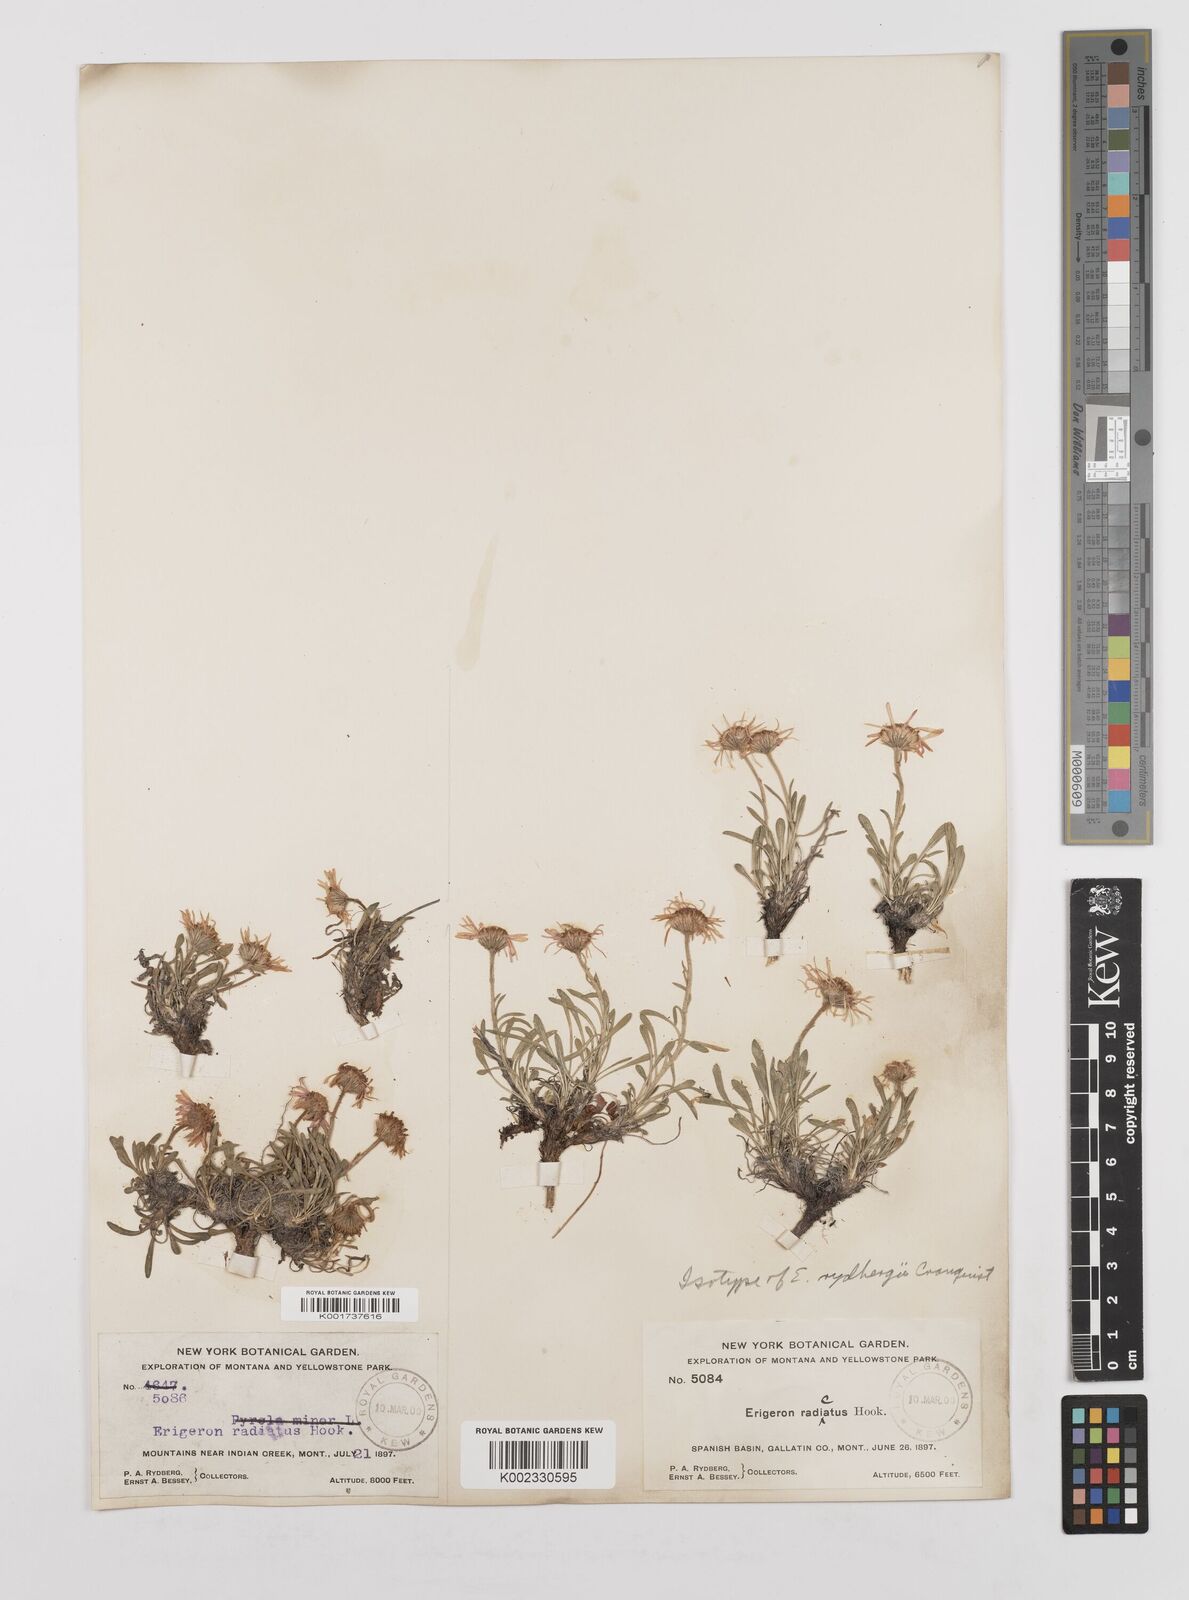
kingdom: Plantae
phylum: Tracheophyta
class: Magnoliopsida
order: Asterales
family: Asteraceae
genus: Erigeron
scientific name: Erigeron radicatus
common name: Dwarf fleabane
